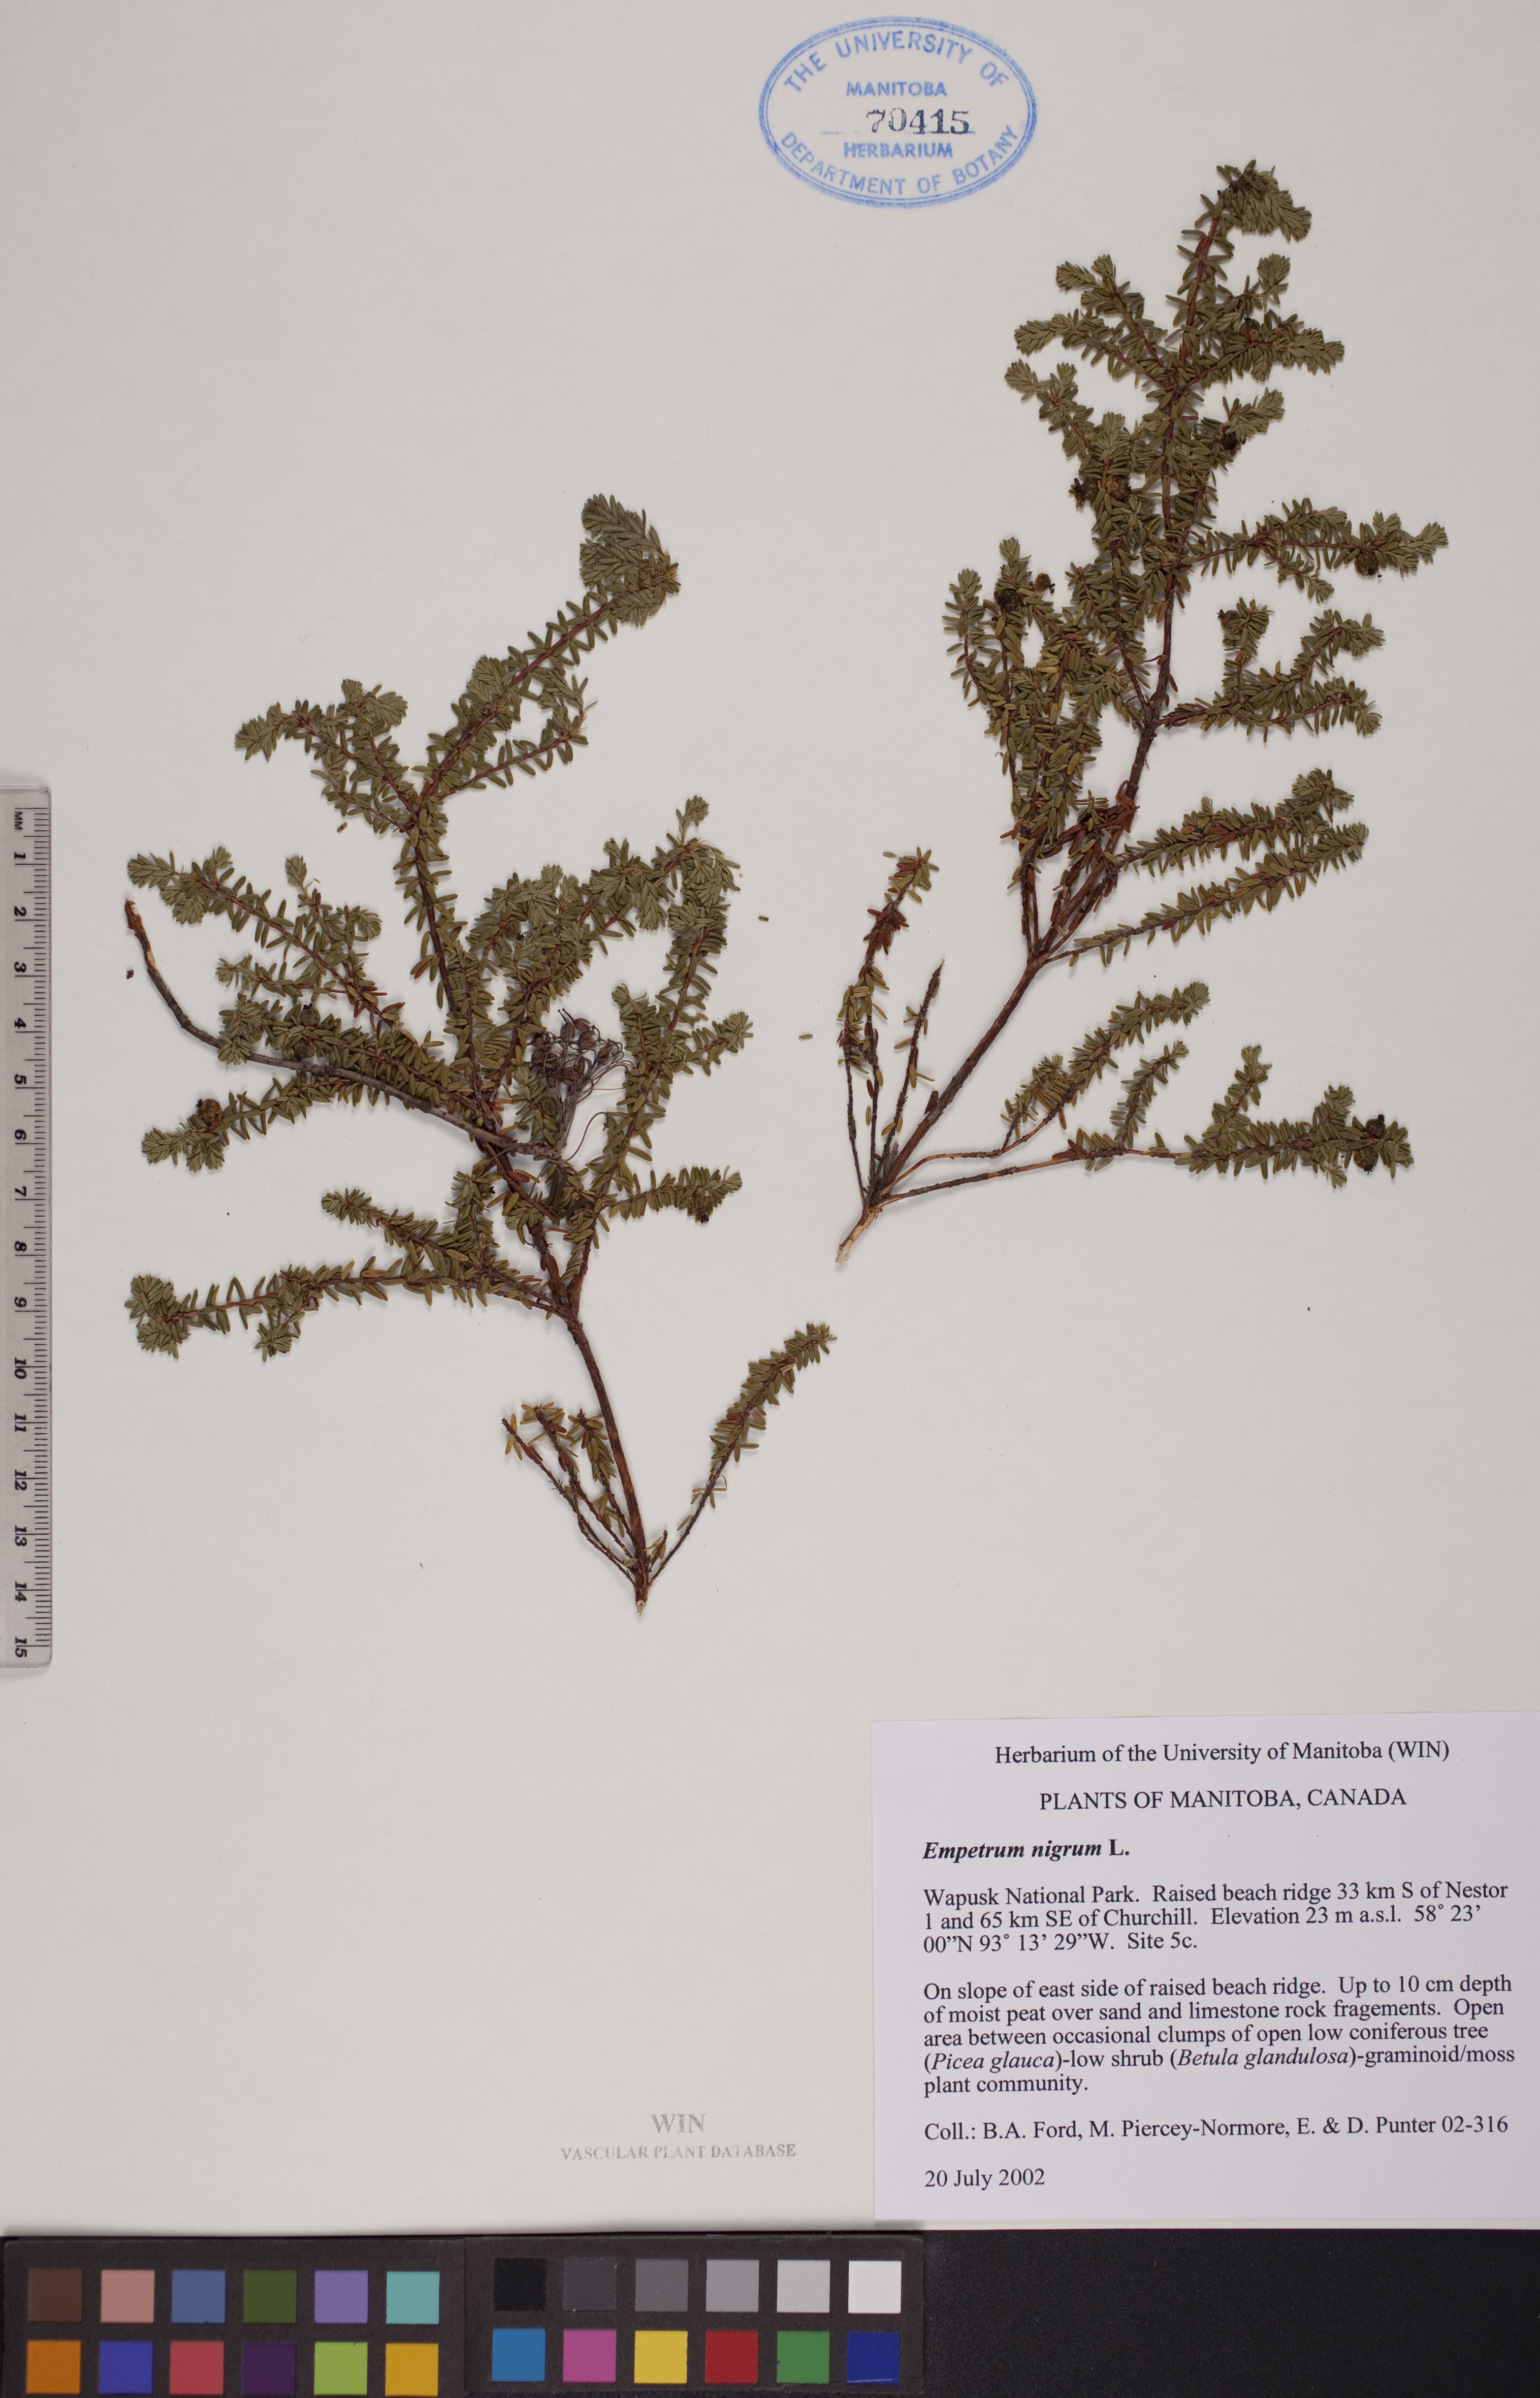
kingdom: Plantae
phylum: Tracheophyta
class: Magnoliopsida
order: Ericales
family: Ericaceae
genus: Empetrum
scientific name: Empetrum nigrum
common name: Black crowberry
